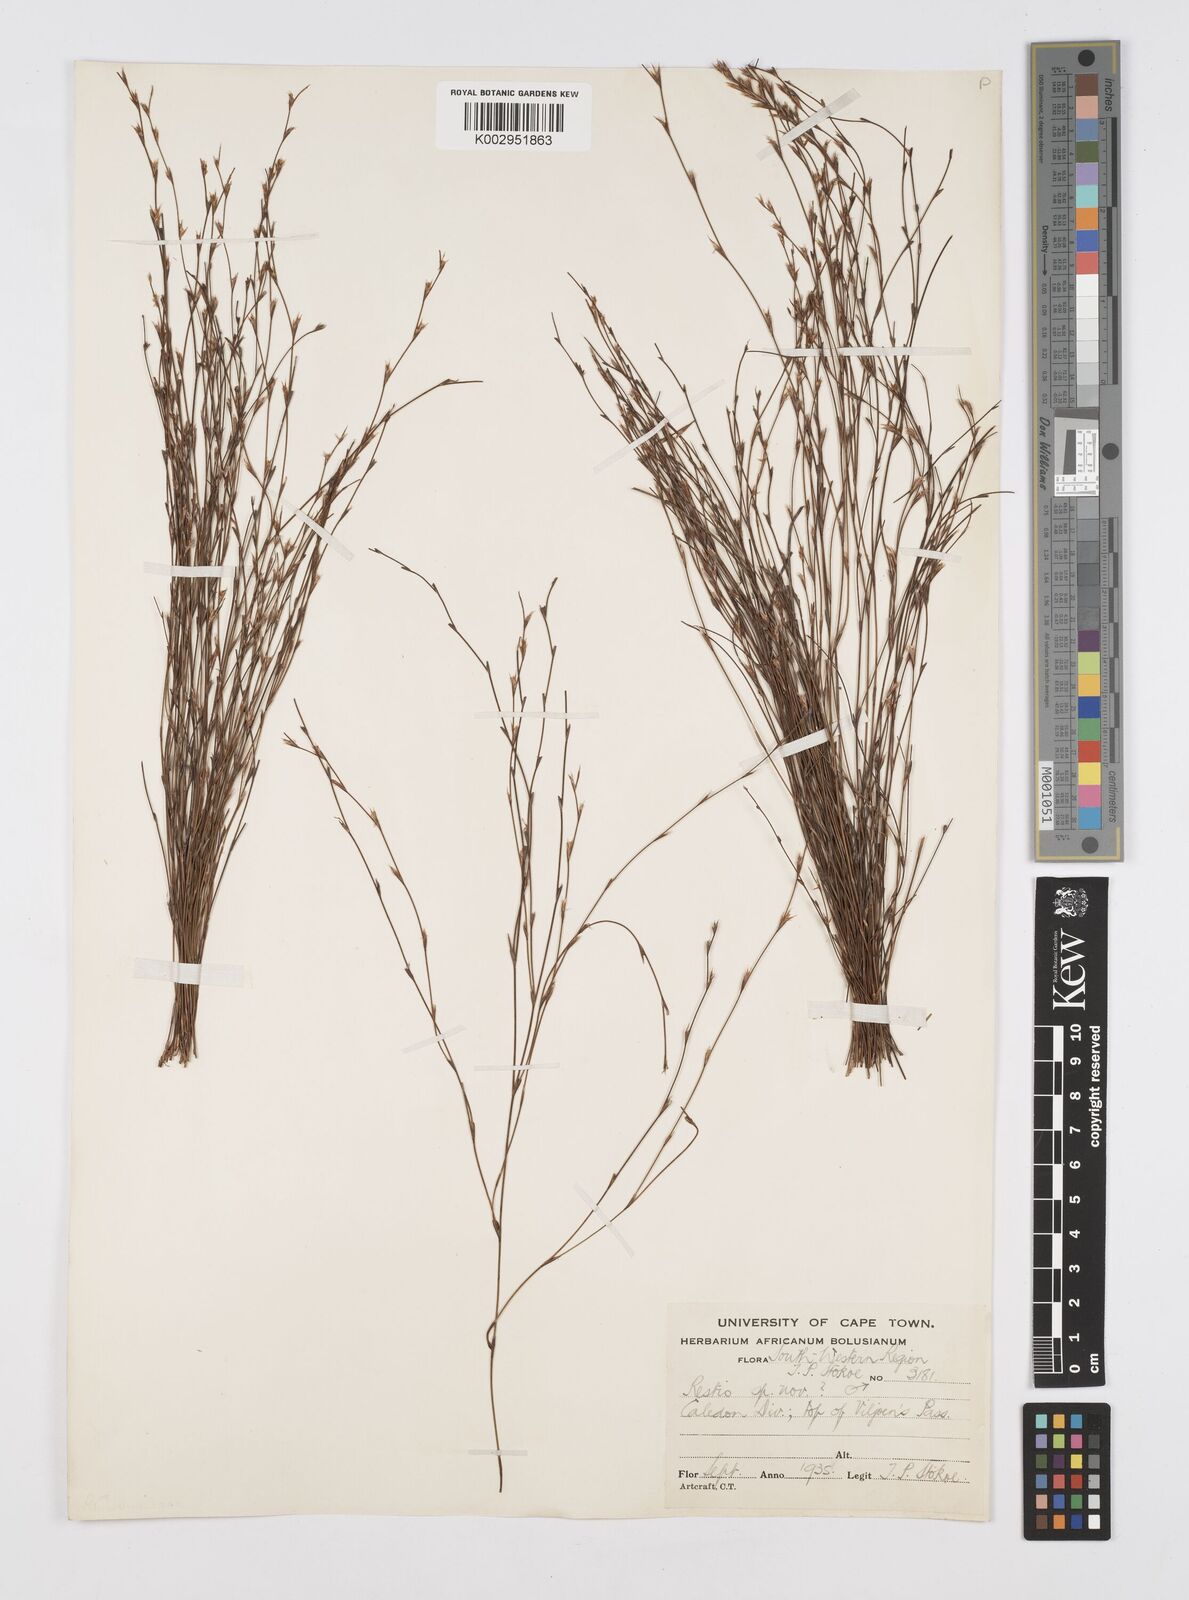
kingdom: Plantae
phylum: Tracheophyta
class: Liliopsida
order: Poales
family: Restionaceae
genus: Restio
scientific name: Restio
